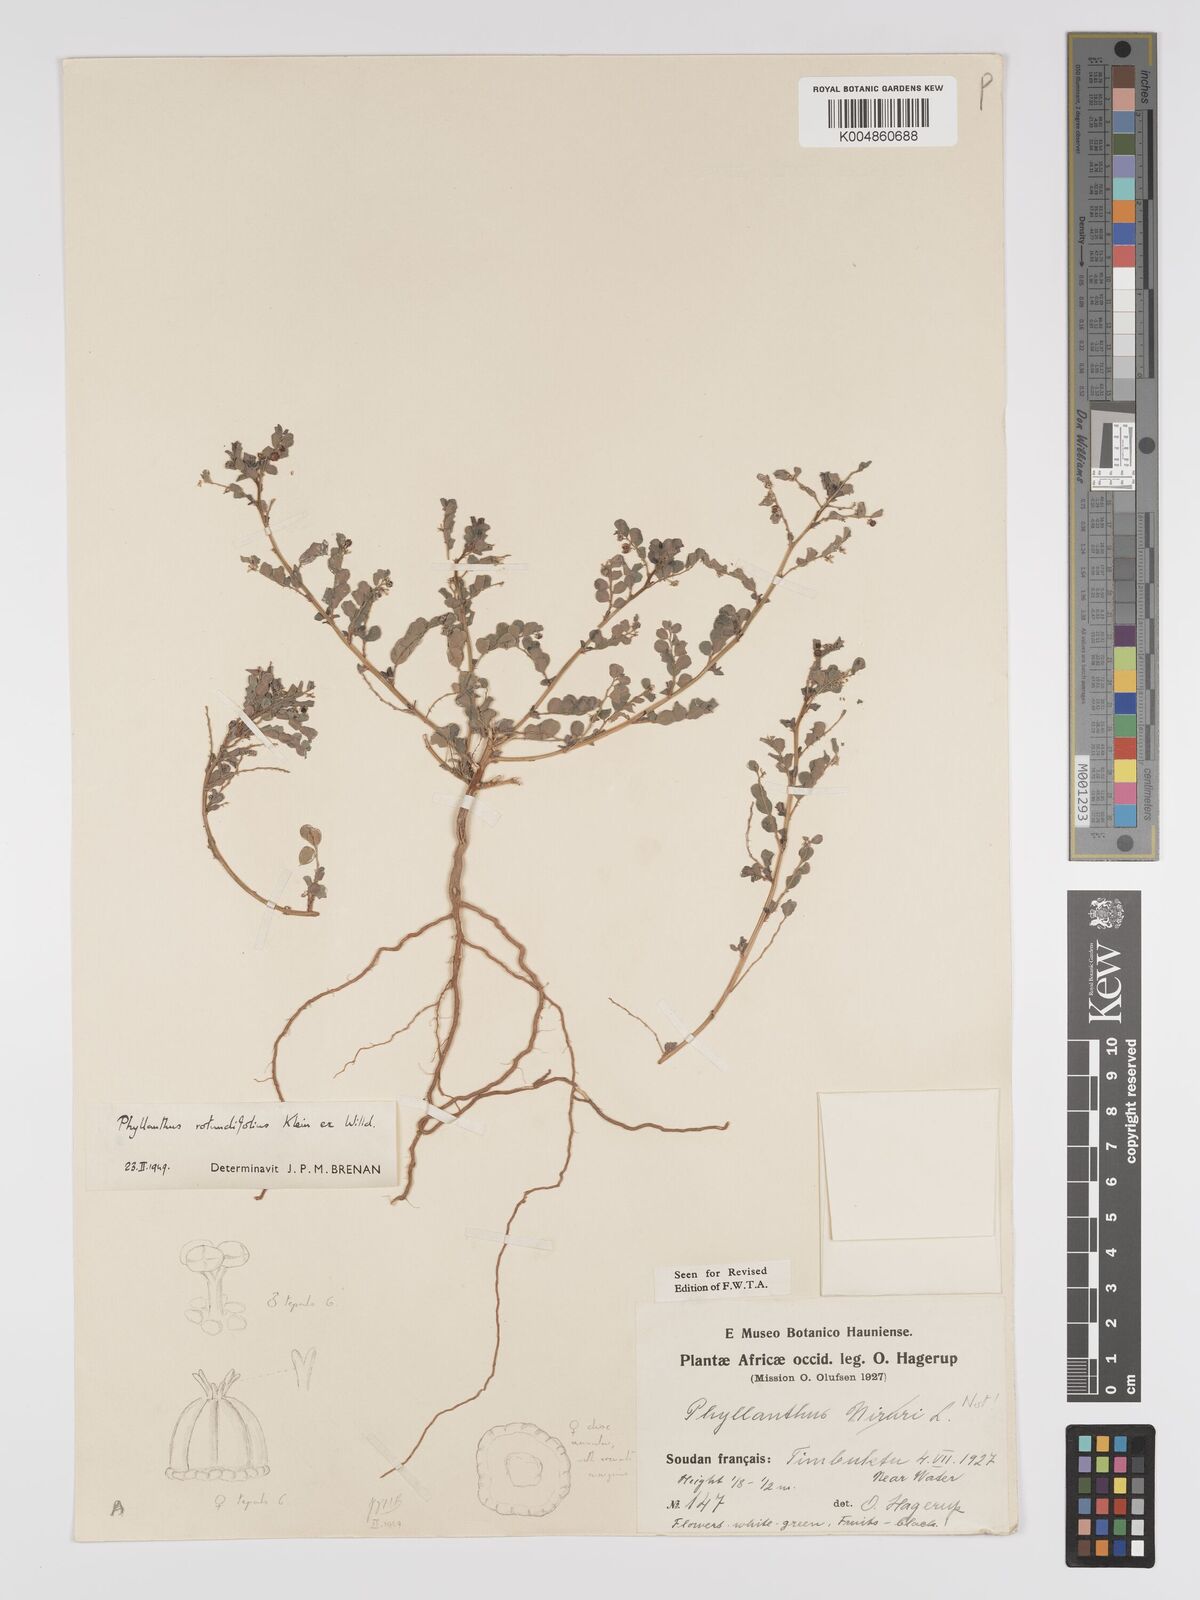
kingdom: Plantae
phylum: Tracheophyta
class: Magnoliopsida
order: Malpighiales
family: Phyllanthaceae
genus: Phyllanthus
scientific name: Phyllanthus
